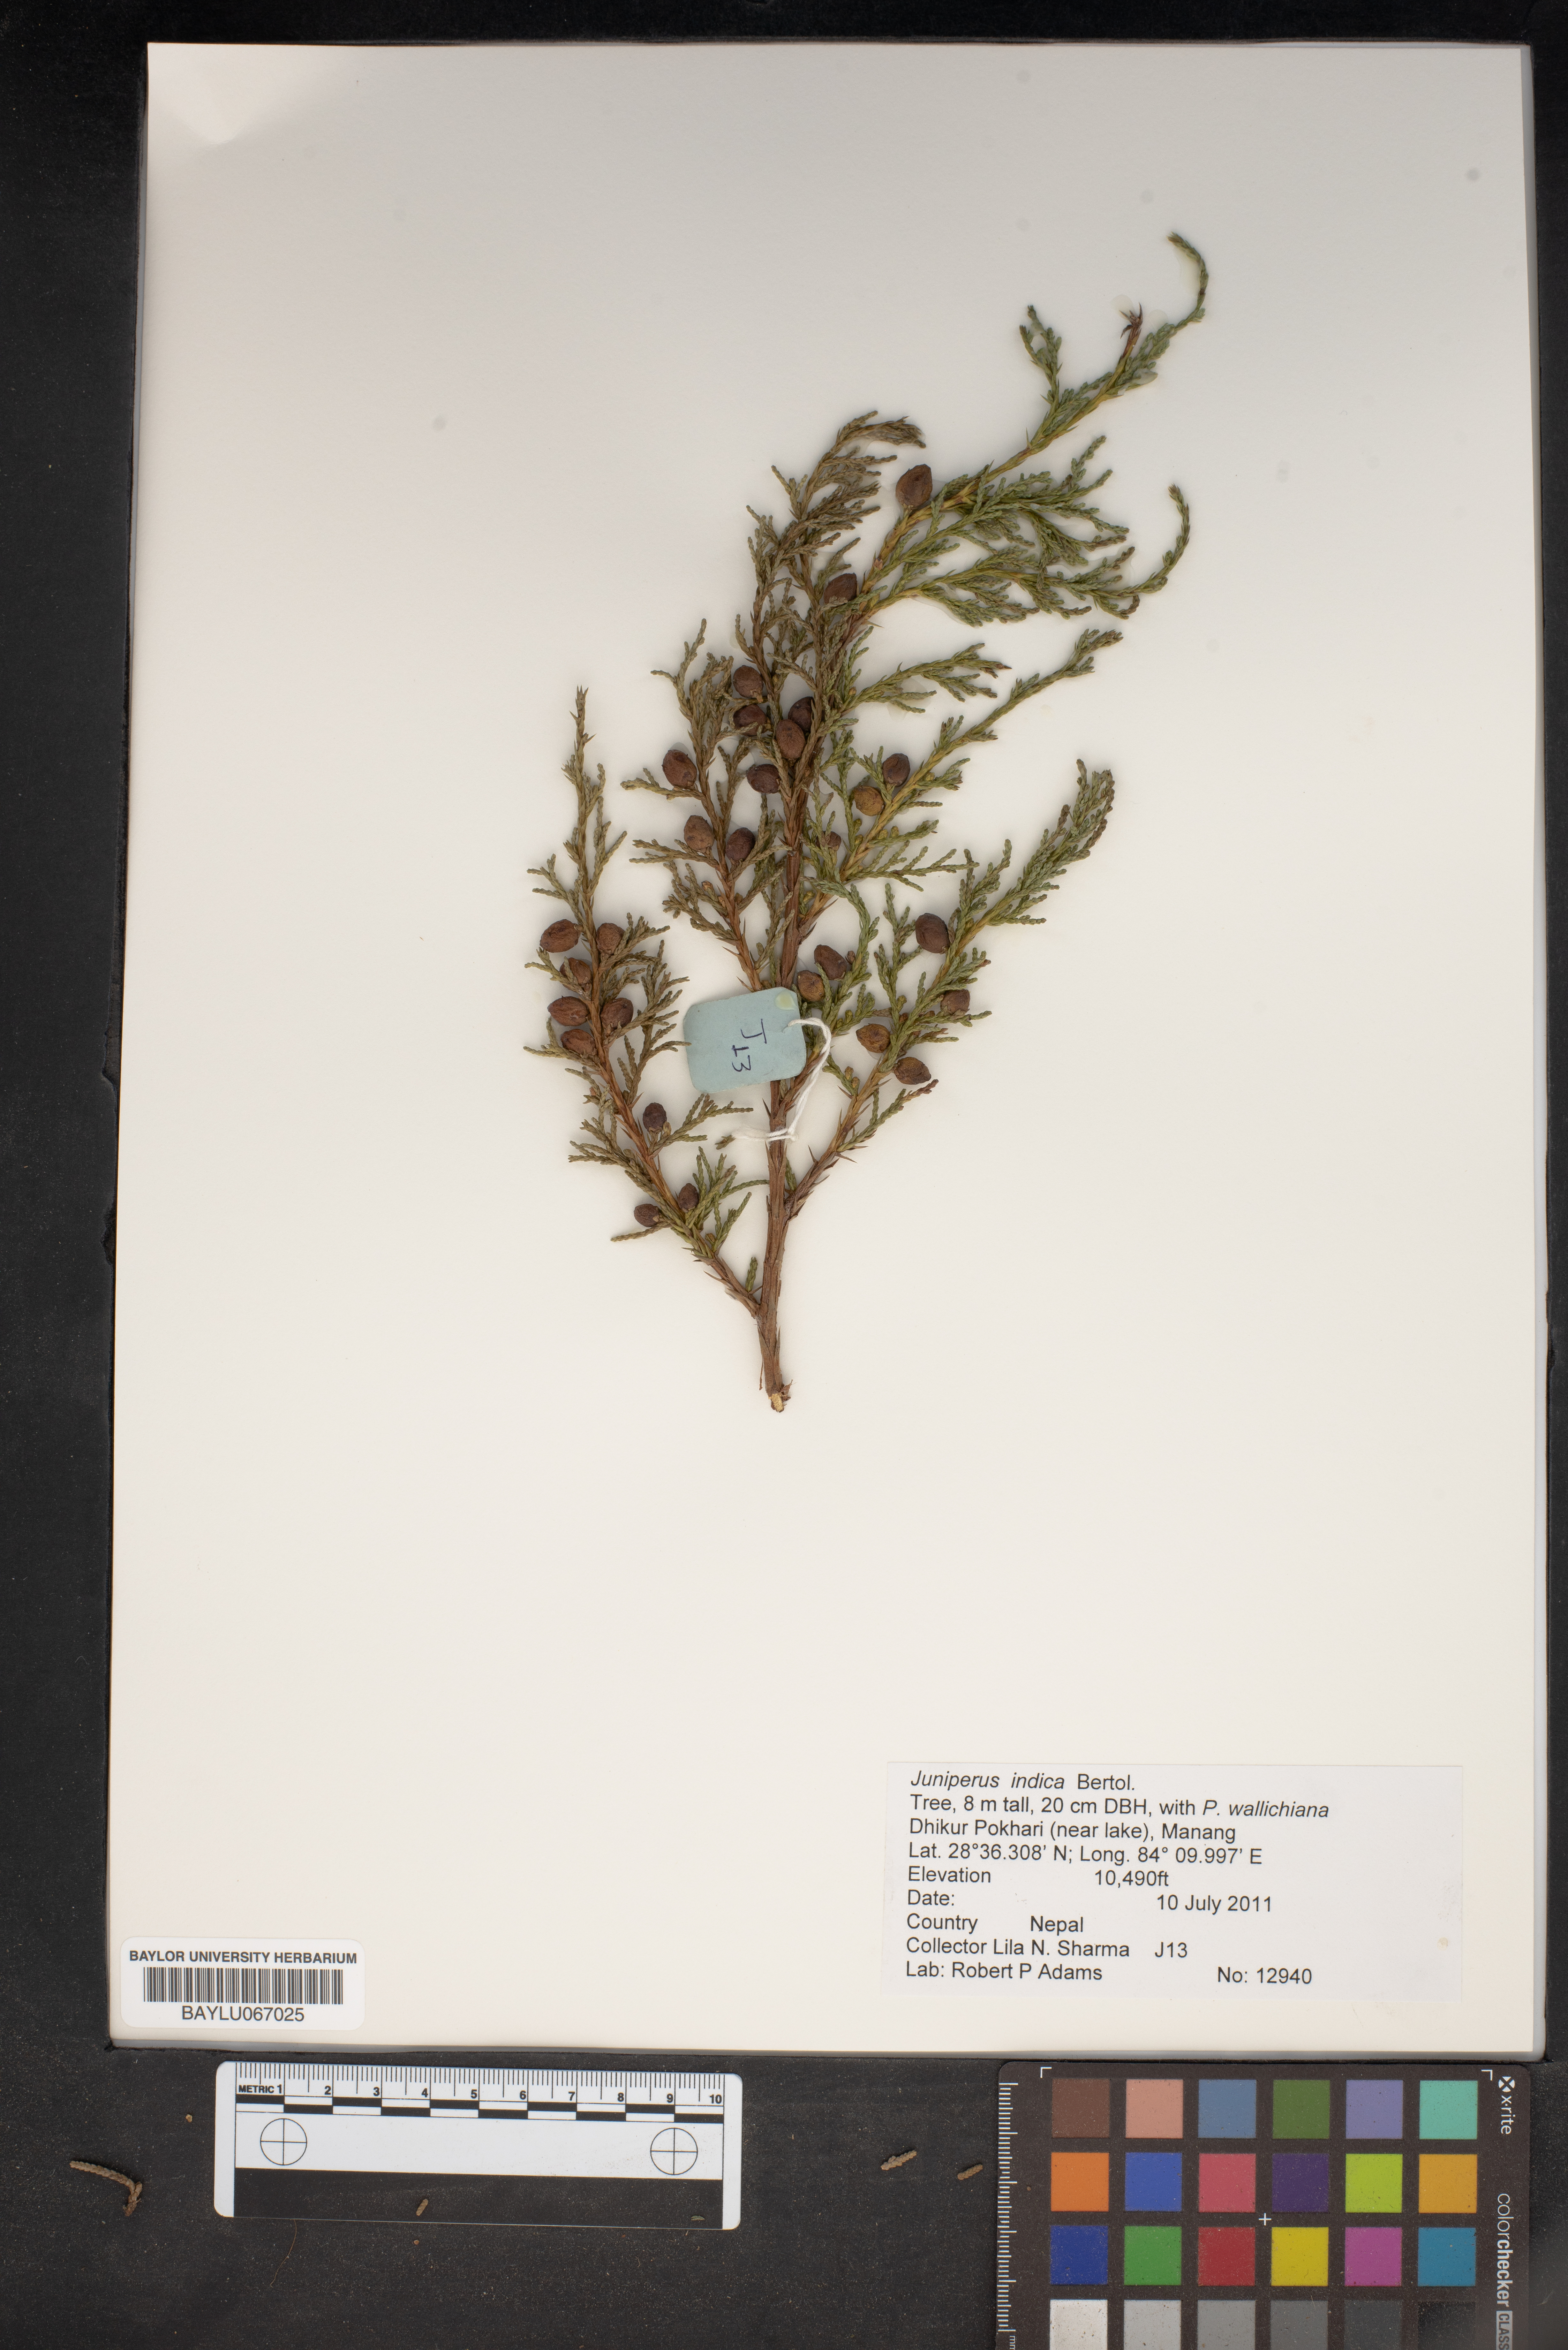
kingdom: Plantae
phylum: Tracheophyta
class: Pinopsida
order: Pinales
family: Cupressaceae
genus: Juniperus
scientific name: Juniperus indica
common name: Black juniper
